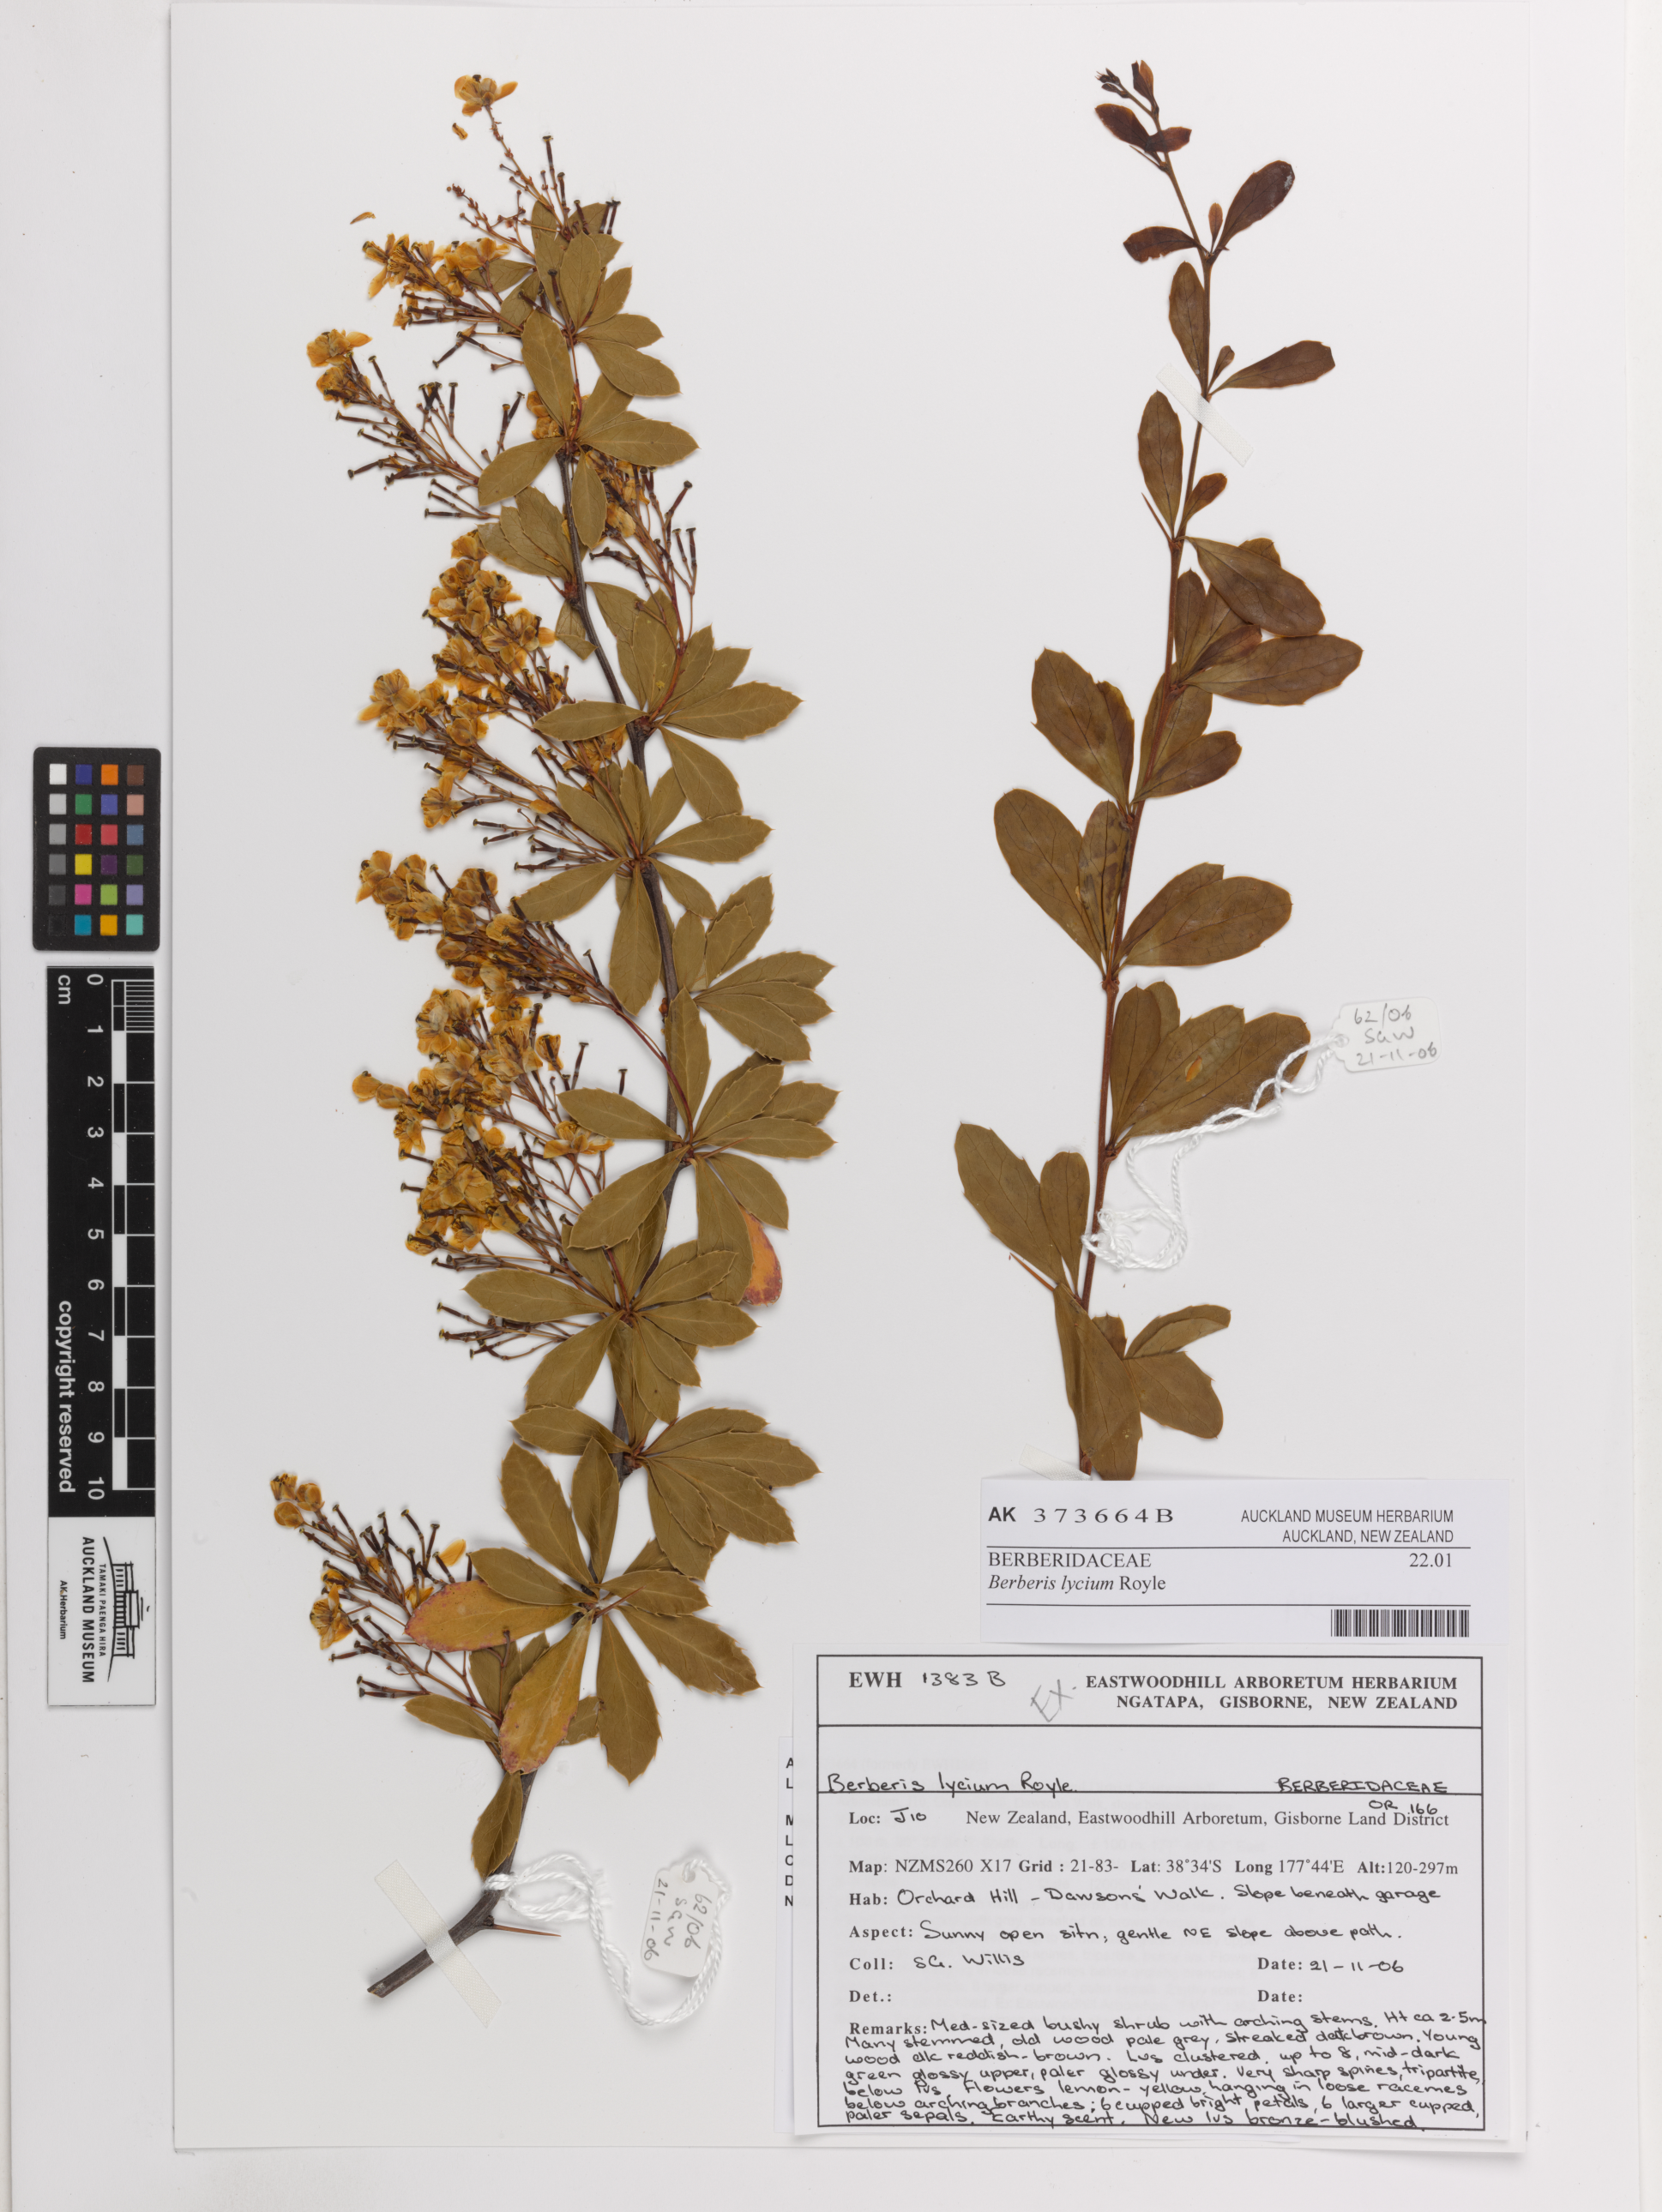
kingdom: Plantae
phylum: Tracheophyta
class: Magnoliopsida
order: Ranunculales
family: Berberidaceae
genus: Berberis
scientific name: Berberis lycium
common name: Boxthorn barberry
